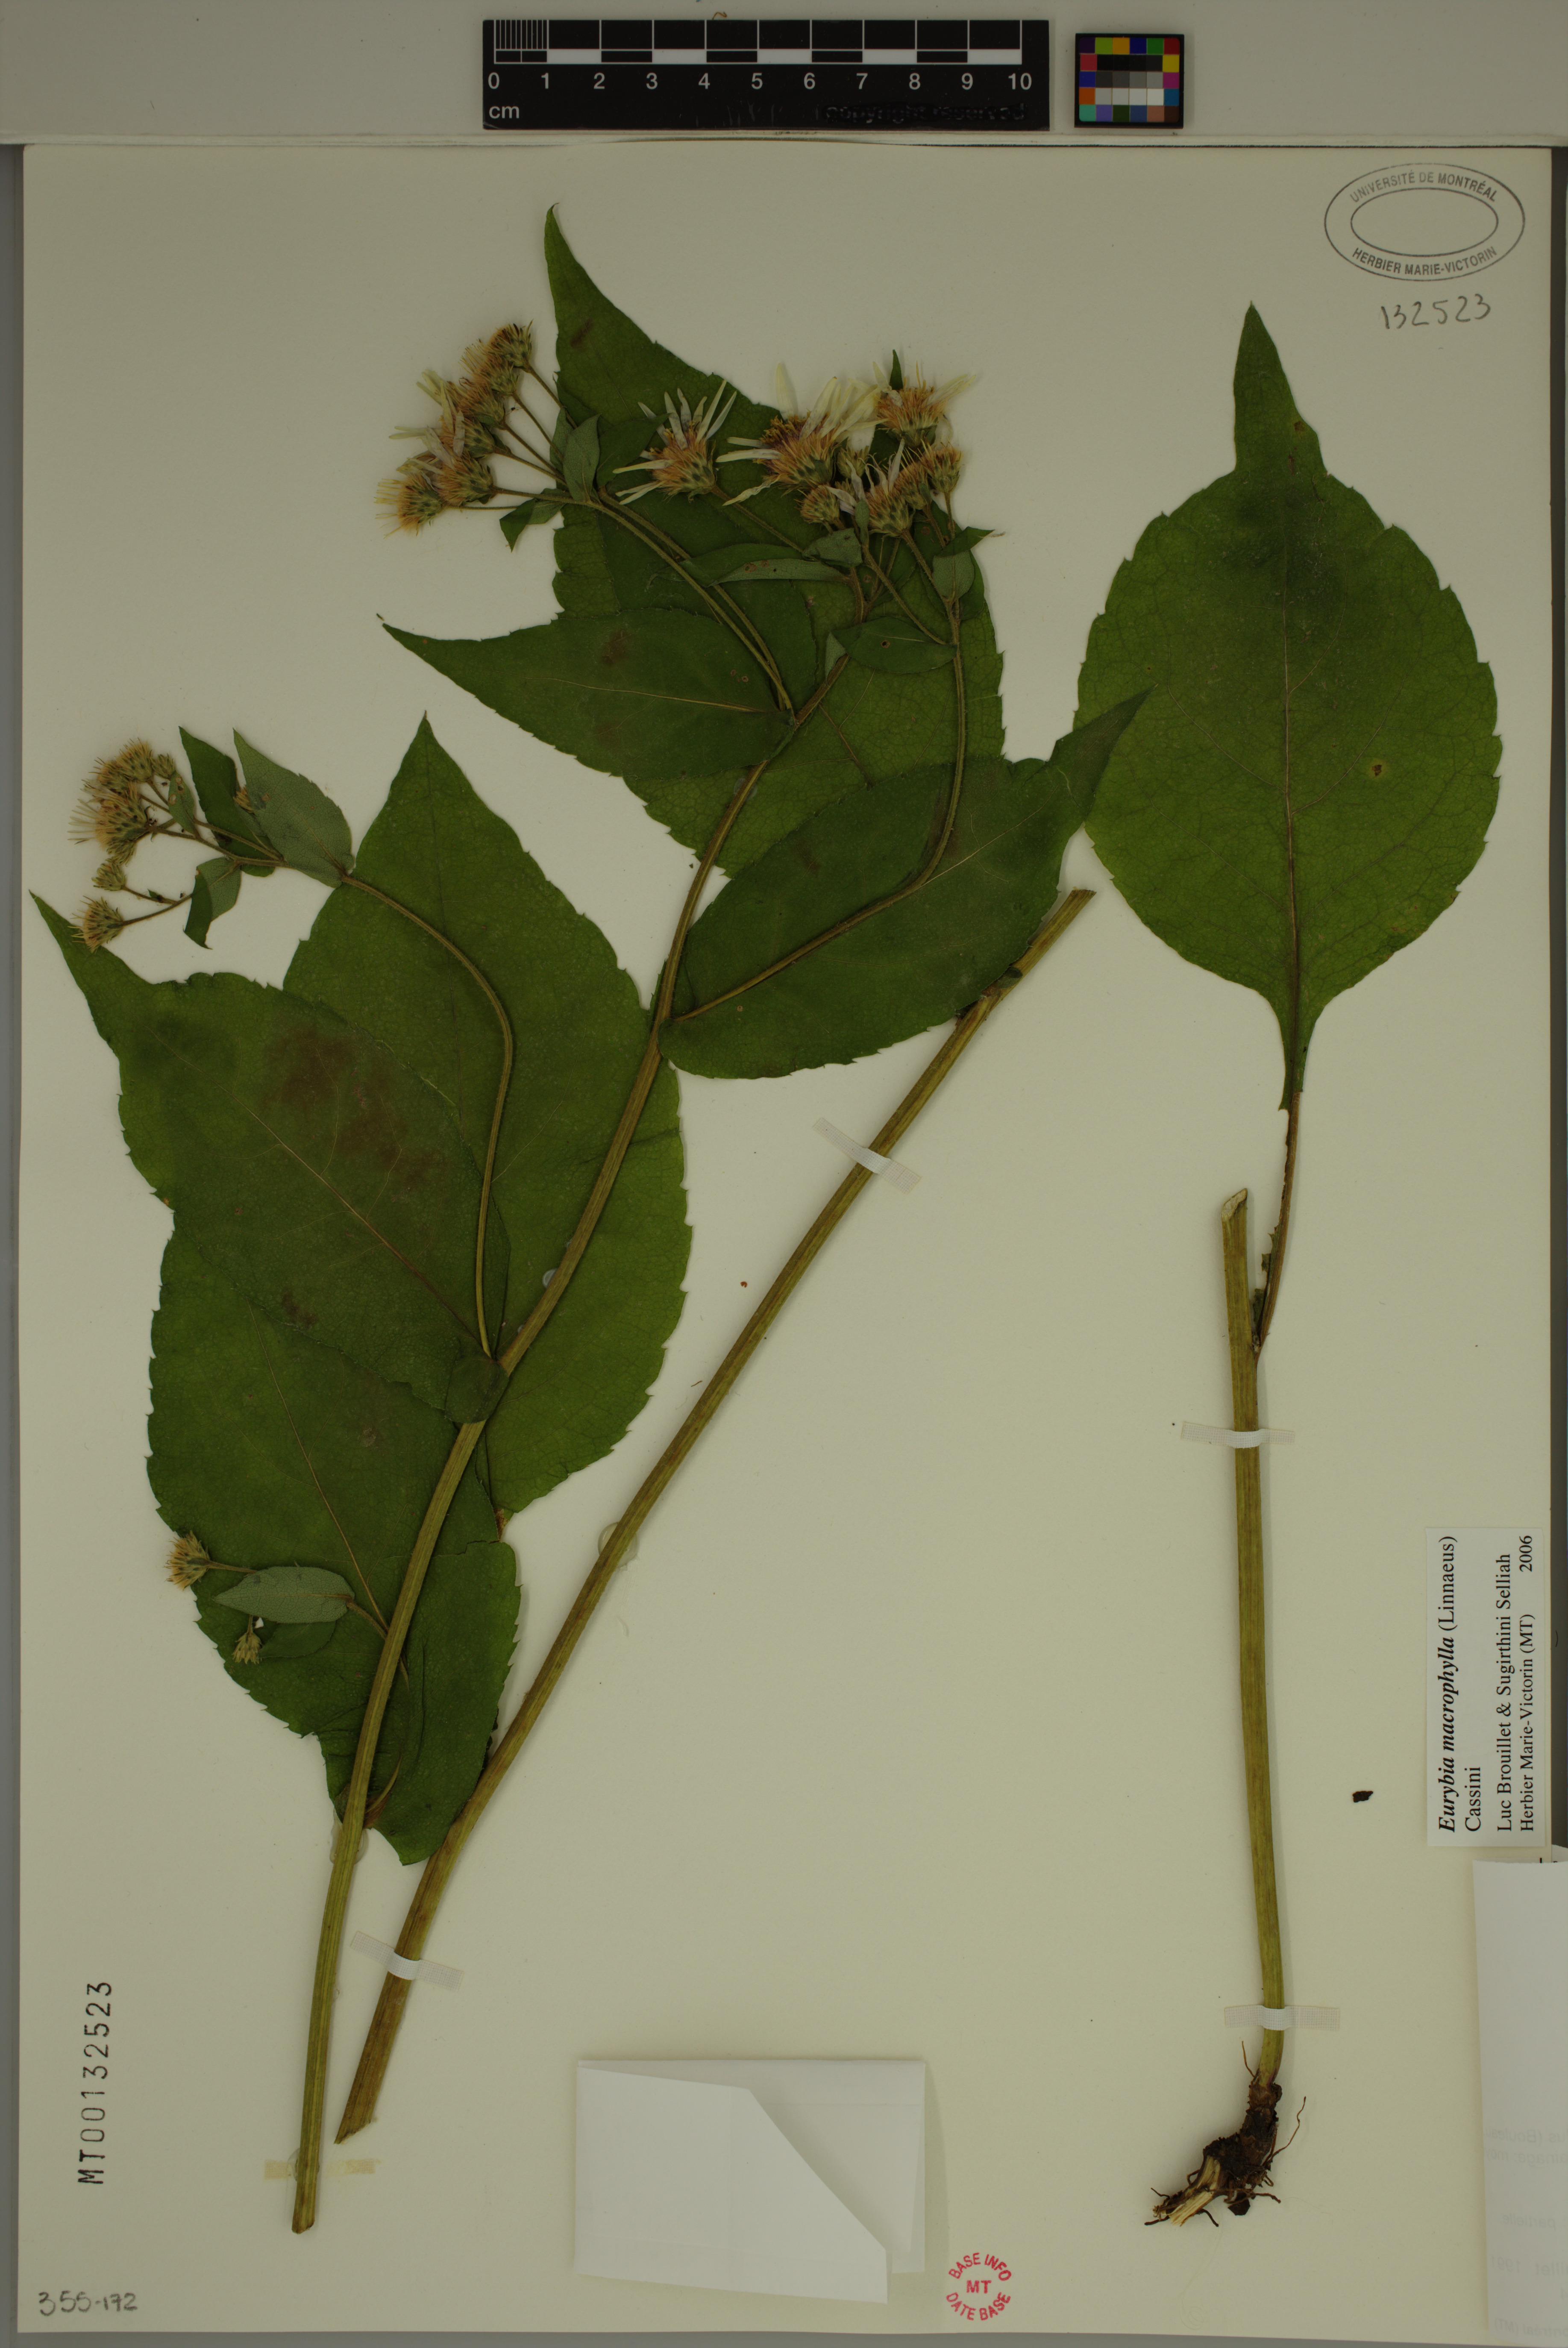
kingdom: Plantae
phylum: Tracheophyta
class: Magnoliopsida
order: Asterales
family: Asteraceae
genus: Eurybia
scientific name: Eurybia macrophylla
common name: Big-leaved aster
